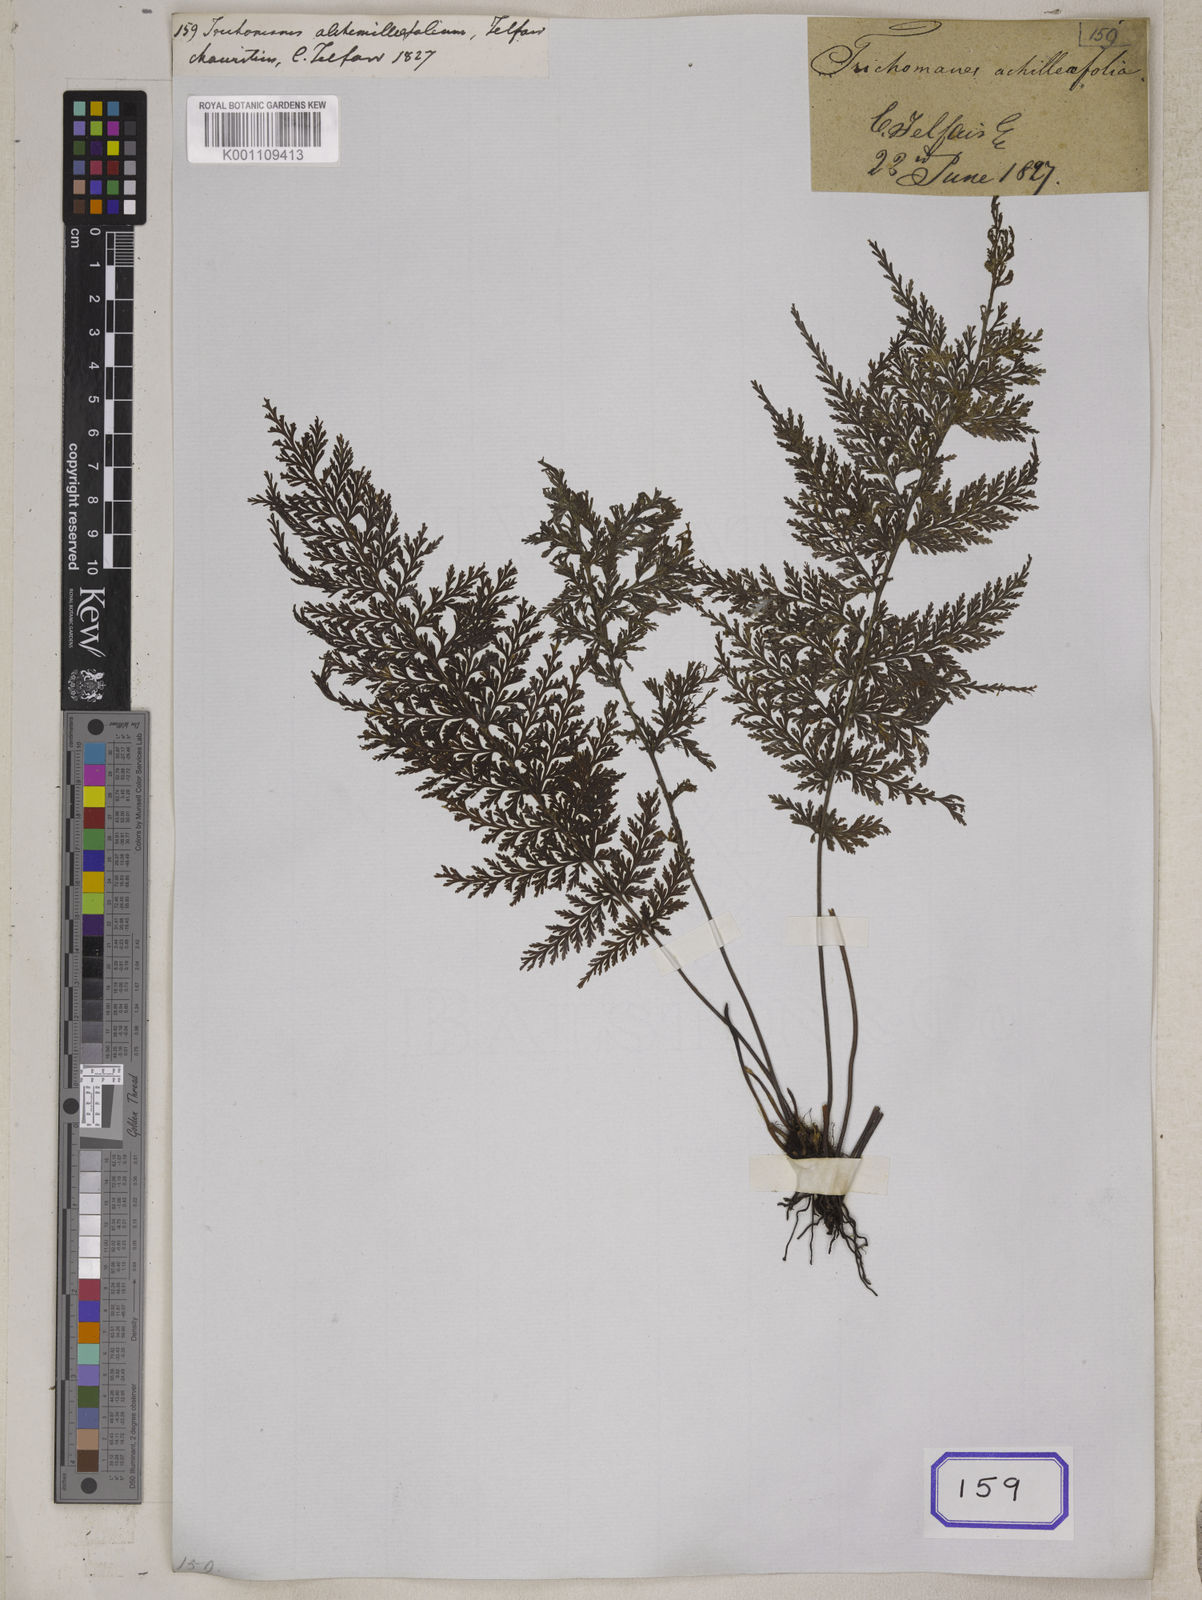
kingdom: Plantae
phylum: Tracheophyta
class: Polypodiopsida
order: Hymenophyllales
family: Hymenophyllaceae
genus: Abrodictyum
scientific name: Abrodictyum tamarisciforme
